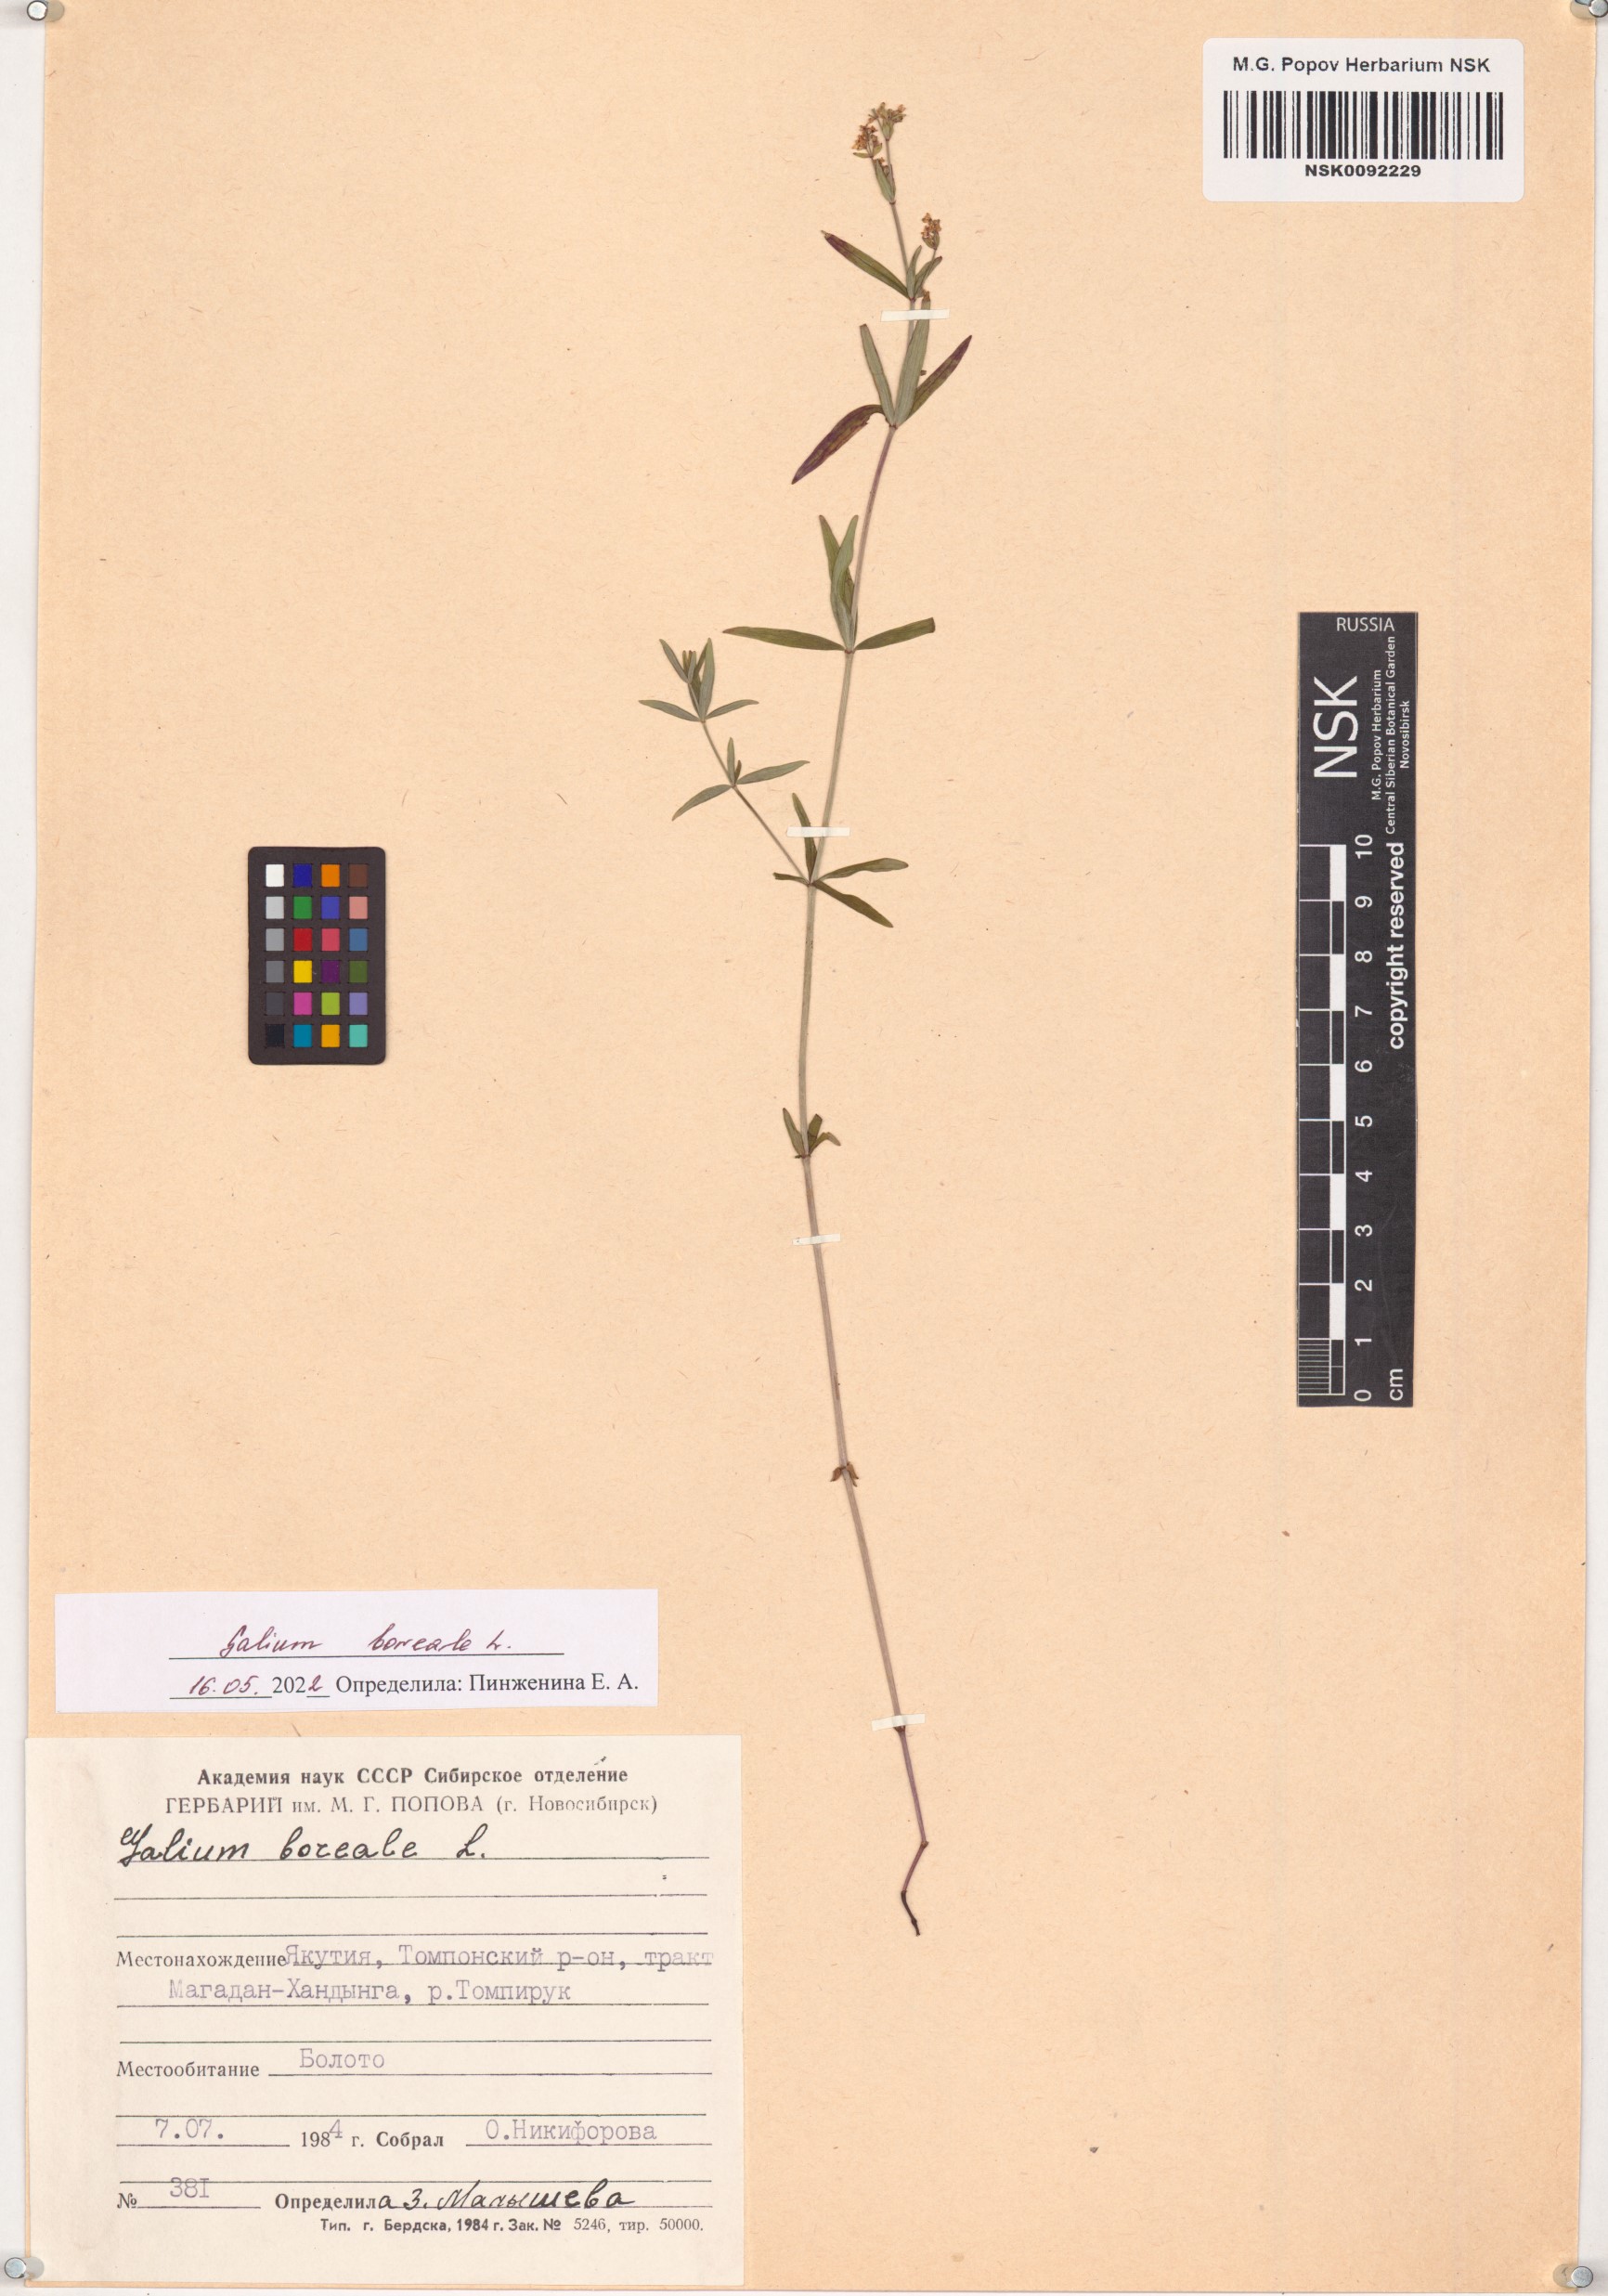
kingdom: Plantae
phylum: Tracheophyta
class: Magnoliopsida
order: Gentianales
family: Rubiaceae
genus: Galium
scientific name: Galium boreale
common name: Northern bedstraw
